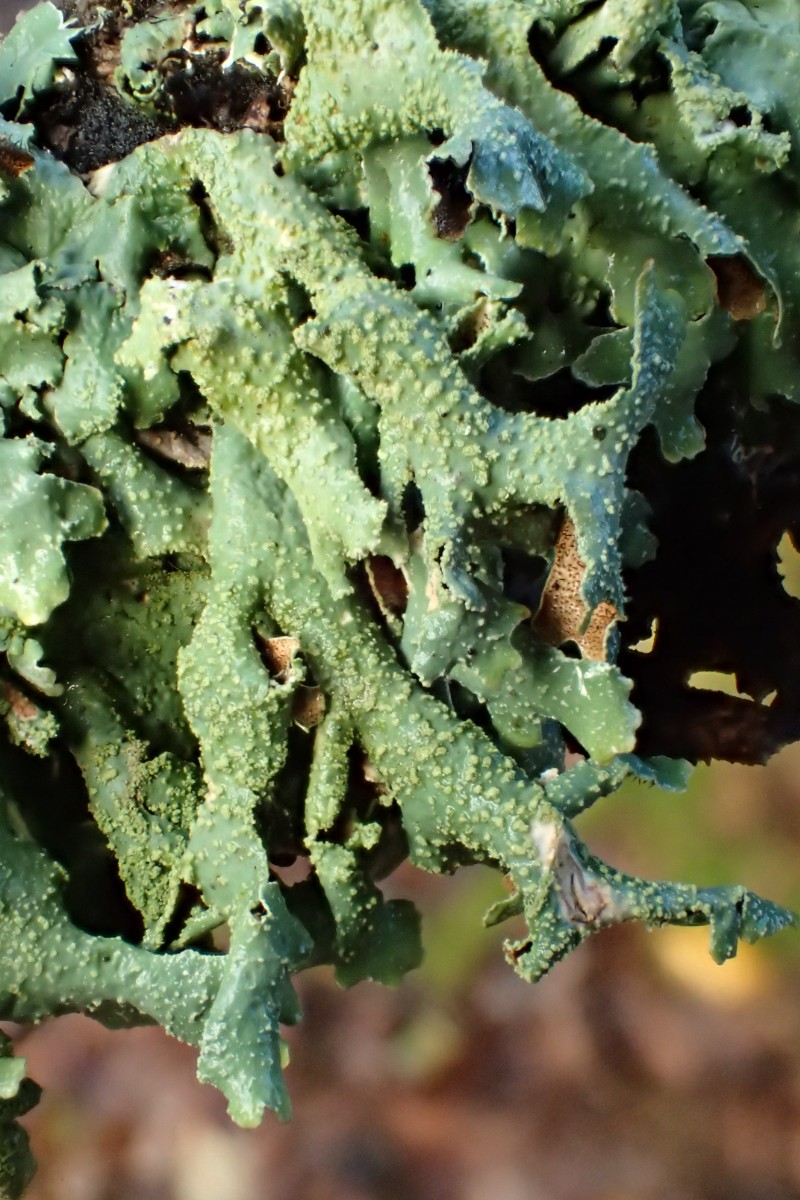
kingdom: Fungi
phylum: Ascomycota
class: Lecanoromycetes
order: Lecanorales
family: Parmeliaceae
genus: Parmelia
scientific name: Parmelia submontana
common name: langlobet skållav
